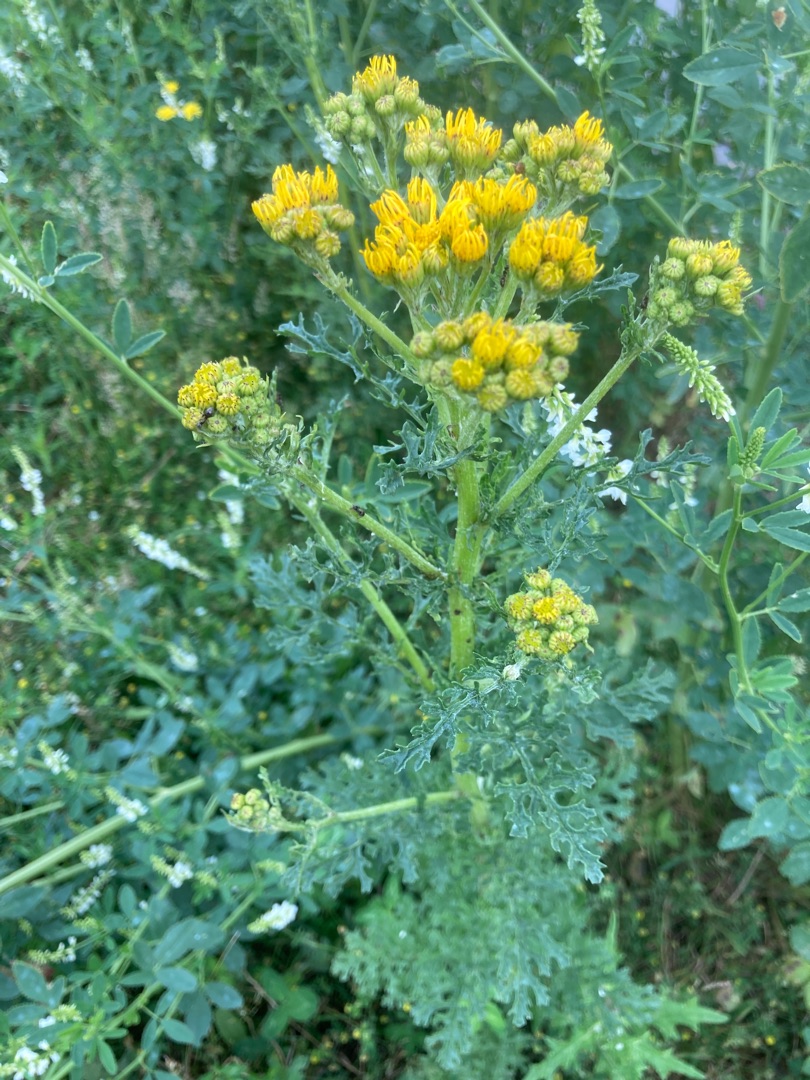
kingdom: Plantae
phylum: Tracheophyta
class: Magnoliopsida
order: Asterales
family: Asteraceae
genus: Jacobaea
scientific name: Jacobaea vulgaris
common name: Eng-brandbæger
